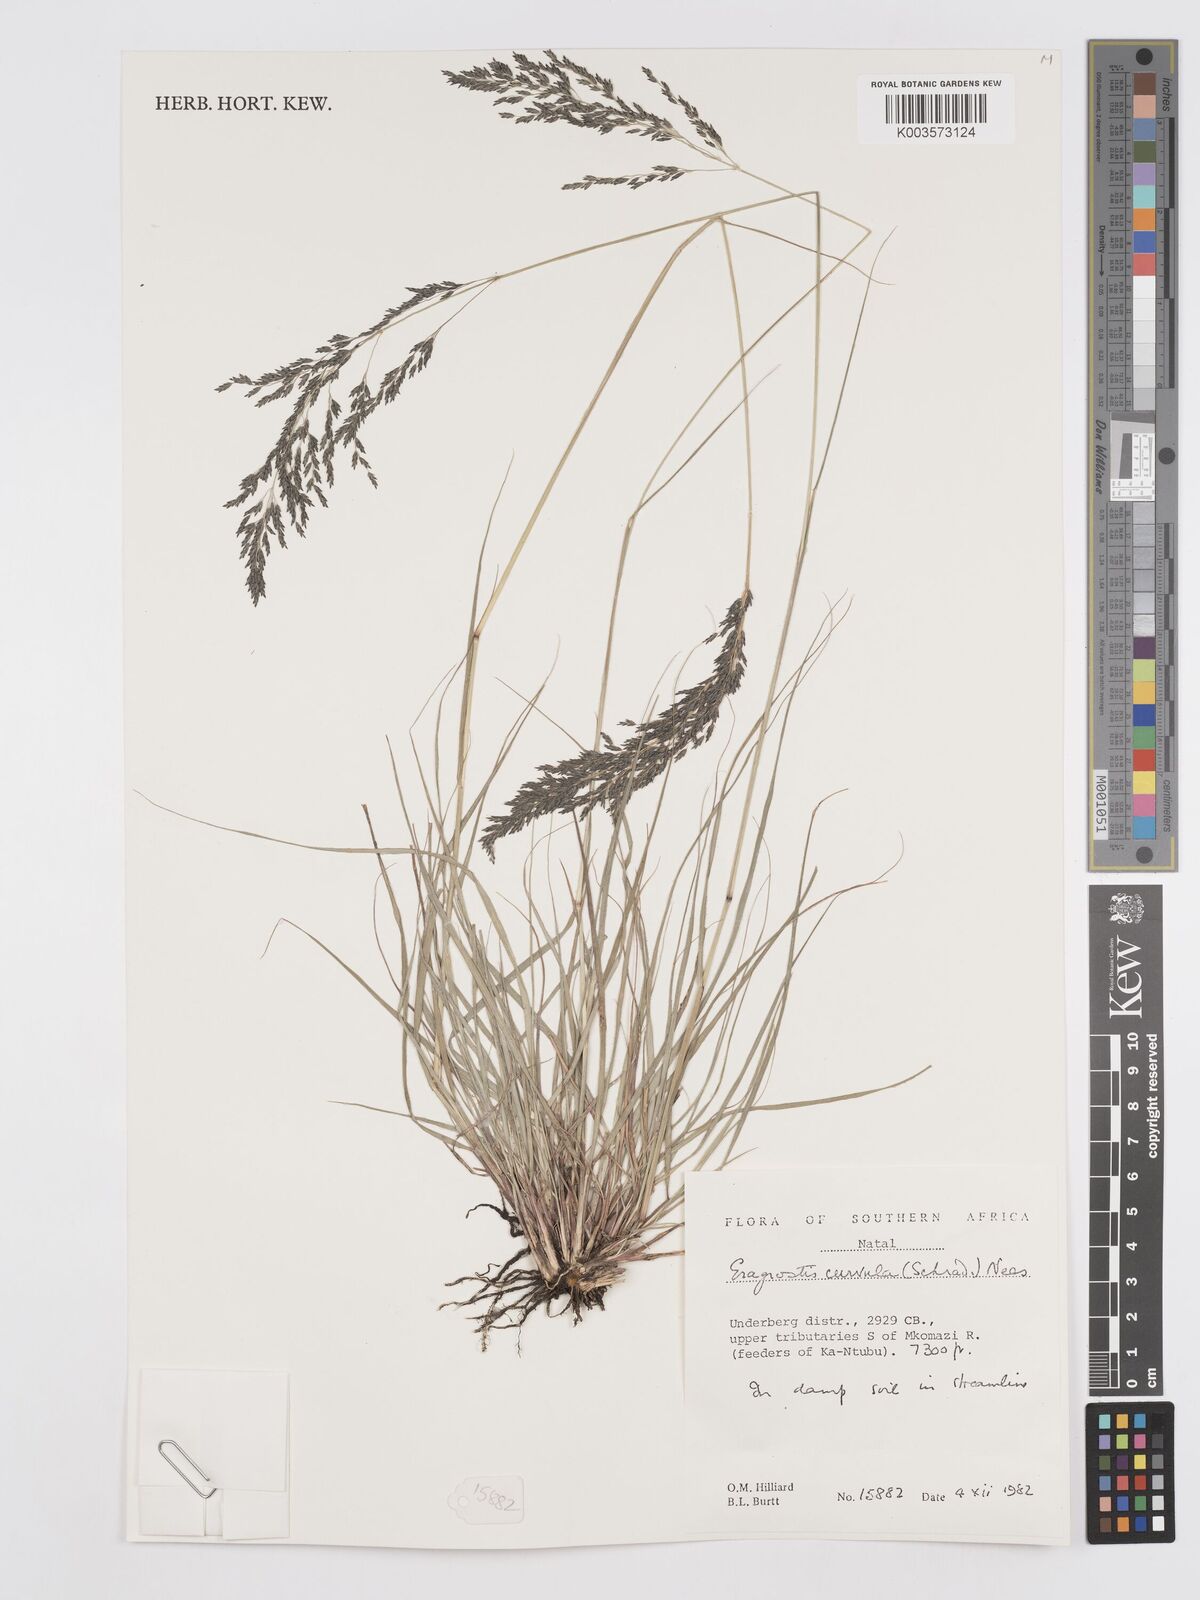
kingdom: Plantae
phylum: Tracheophyta
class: Liliopsida
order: Poales
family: Poaceae
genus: Eragrostis
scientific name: Eragrostis curvula
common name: African love-grass
